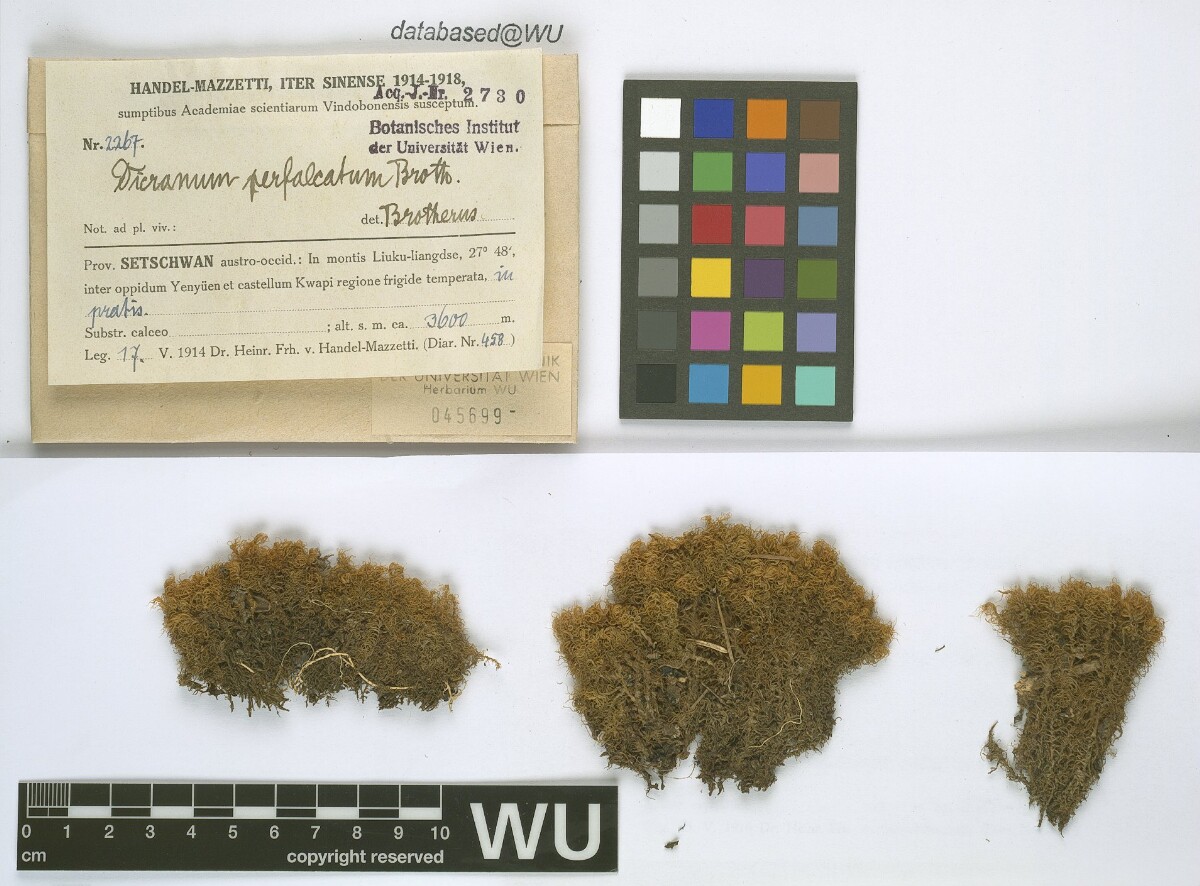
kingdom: Plantae
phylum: Bryophyta
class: Bryopsida
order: Dicranales
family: Dicranaceae
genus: Dicranum
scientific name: Dicranum drummondii
